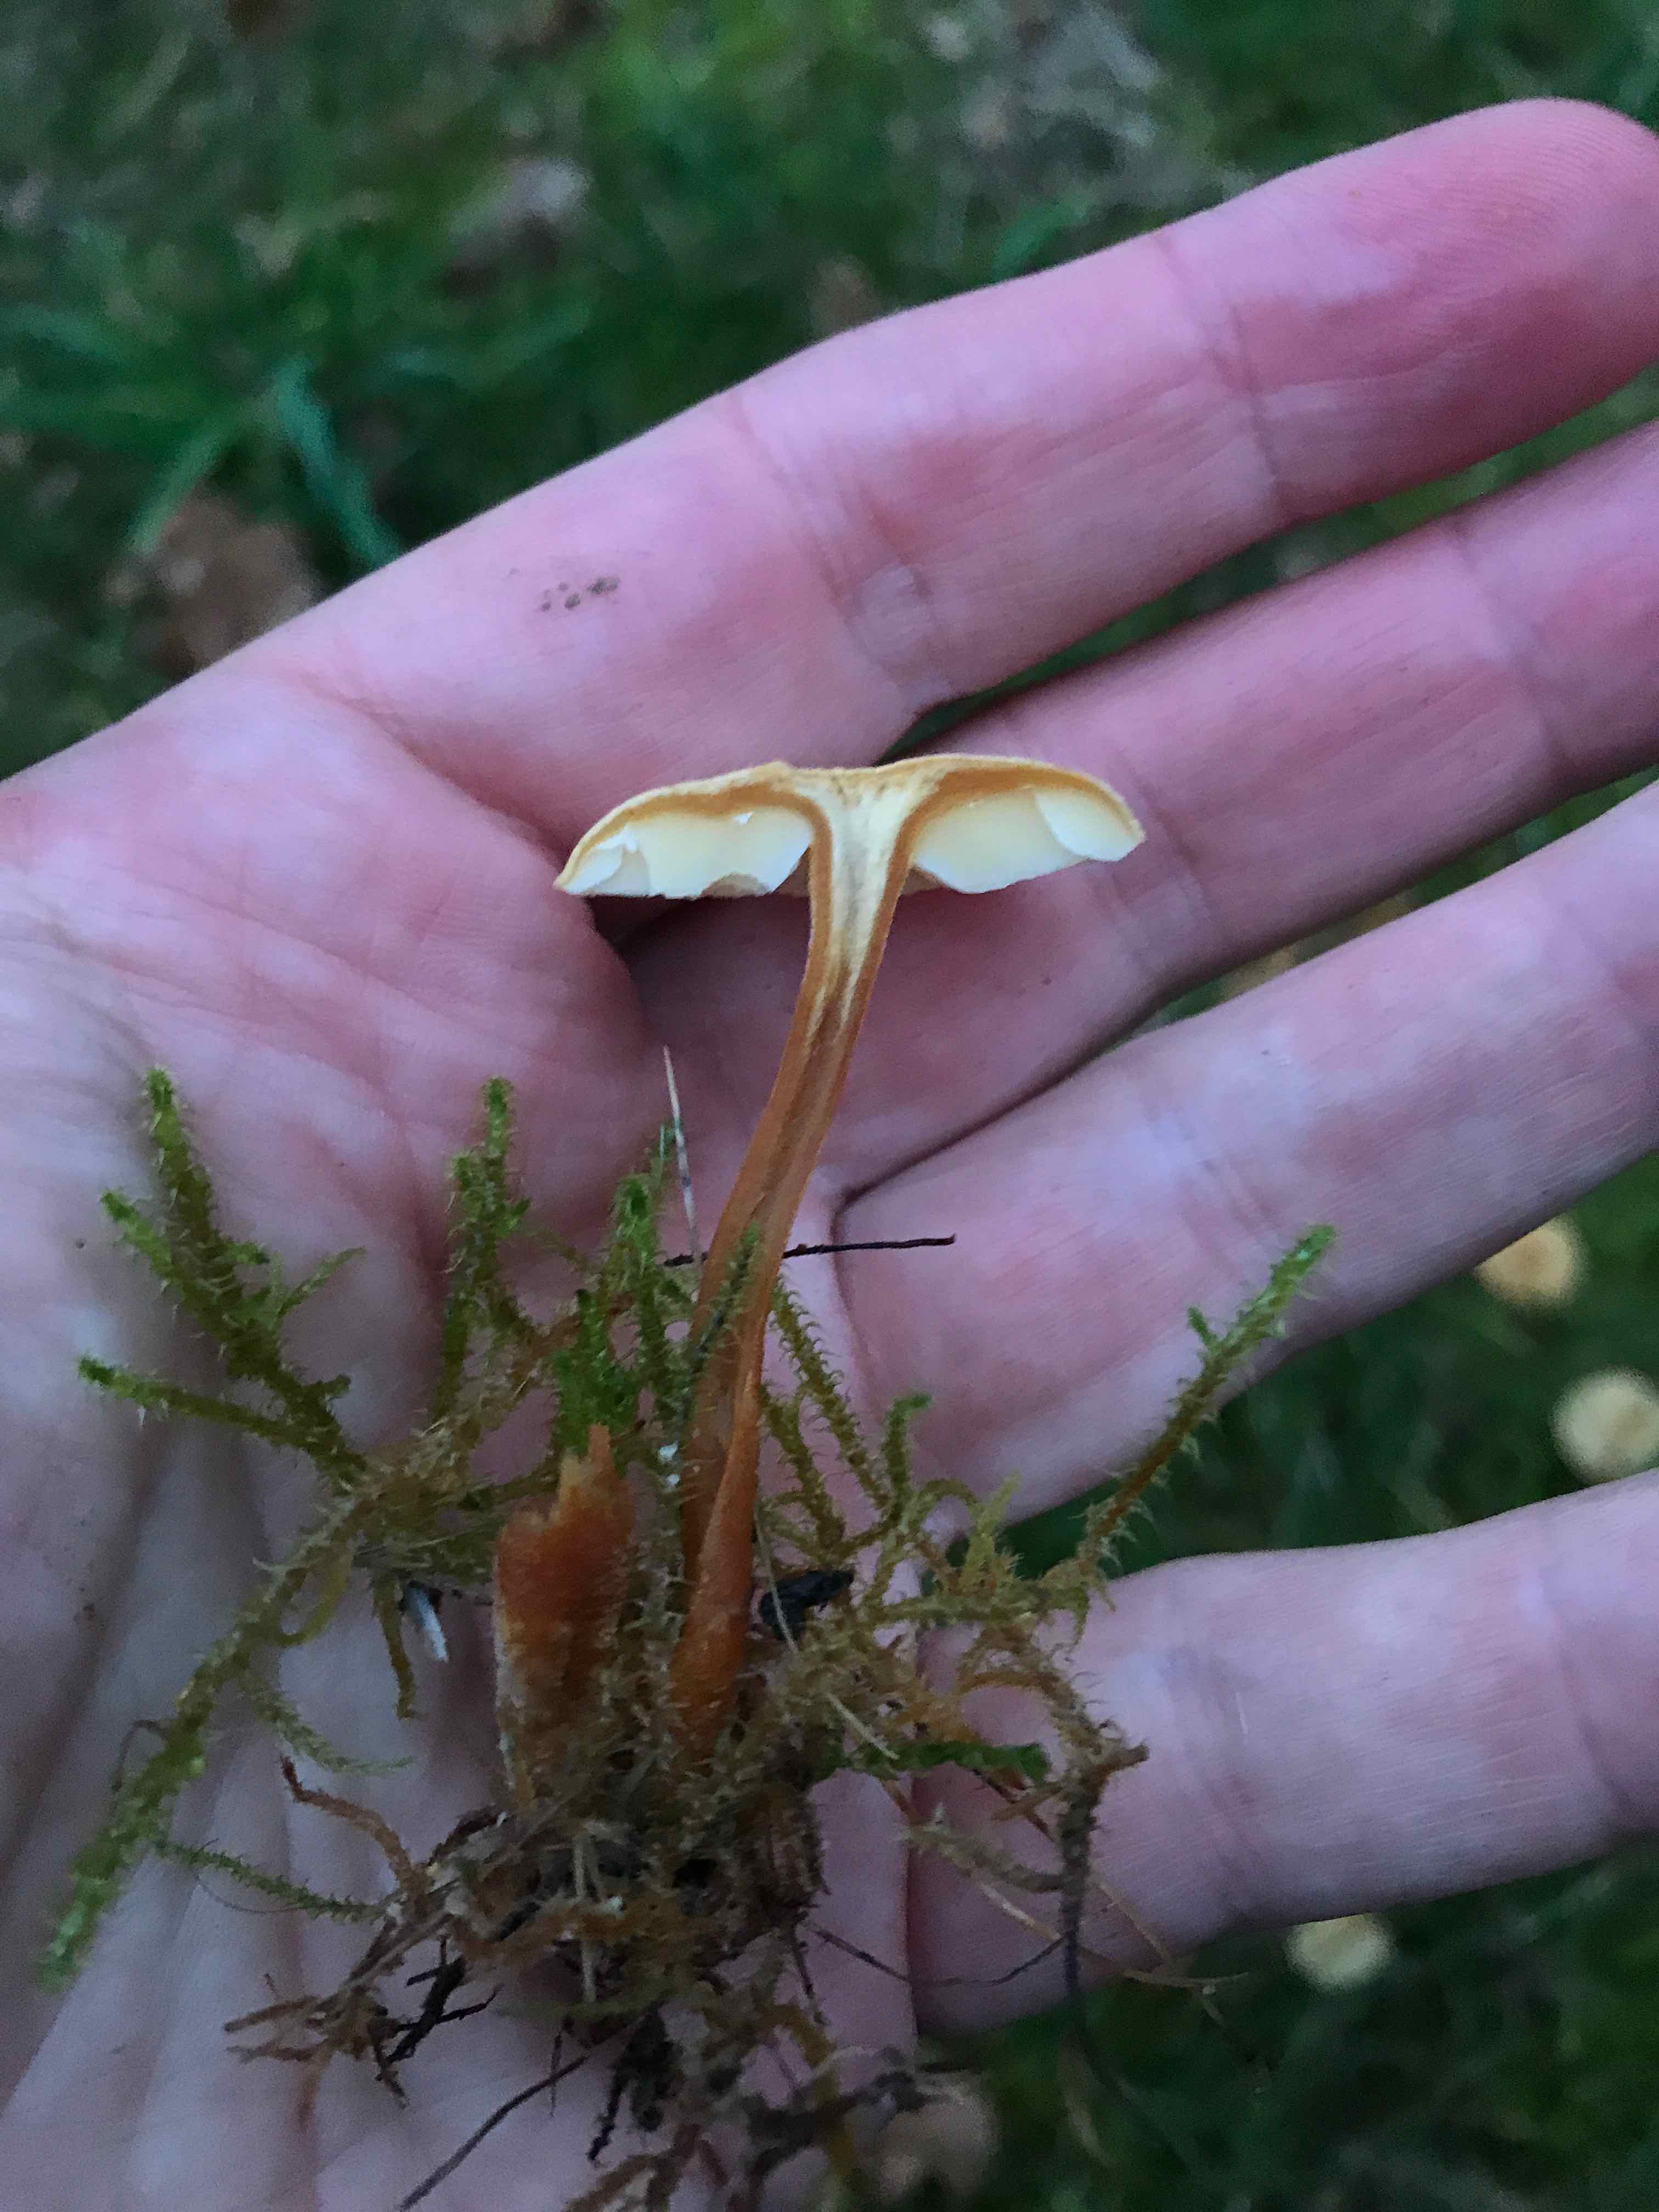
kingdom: Fungi
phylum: Basidiomycota
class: Agaricomycetes
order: Agaricales
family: Tricholomataceae
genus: Cystoderma
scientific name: Cystoderma amianthinum
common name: okkergul grynhat
